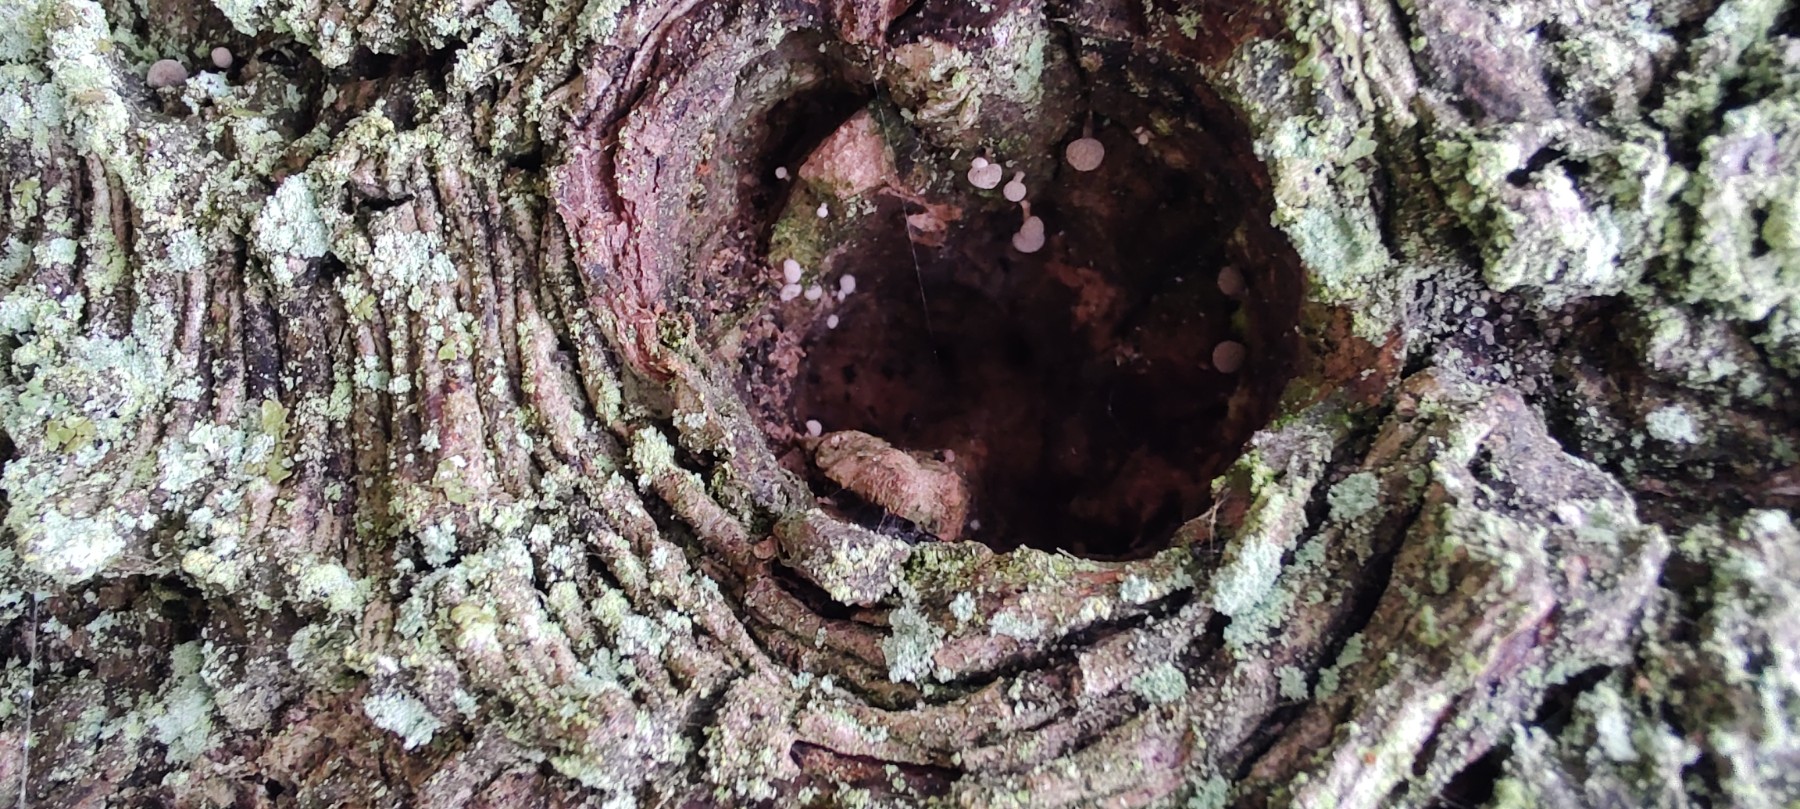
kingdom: Fungi
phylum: Basidiomycota
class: Atractiellomycetes
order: Atractiellales
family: Phleogenaceae
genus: Phleogena
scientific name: Phleogena faginea
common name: pudderkølle
